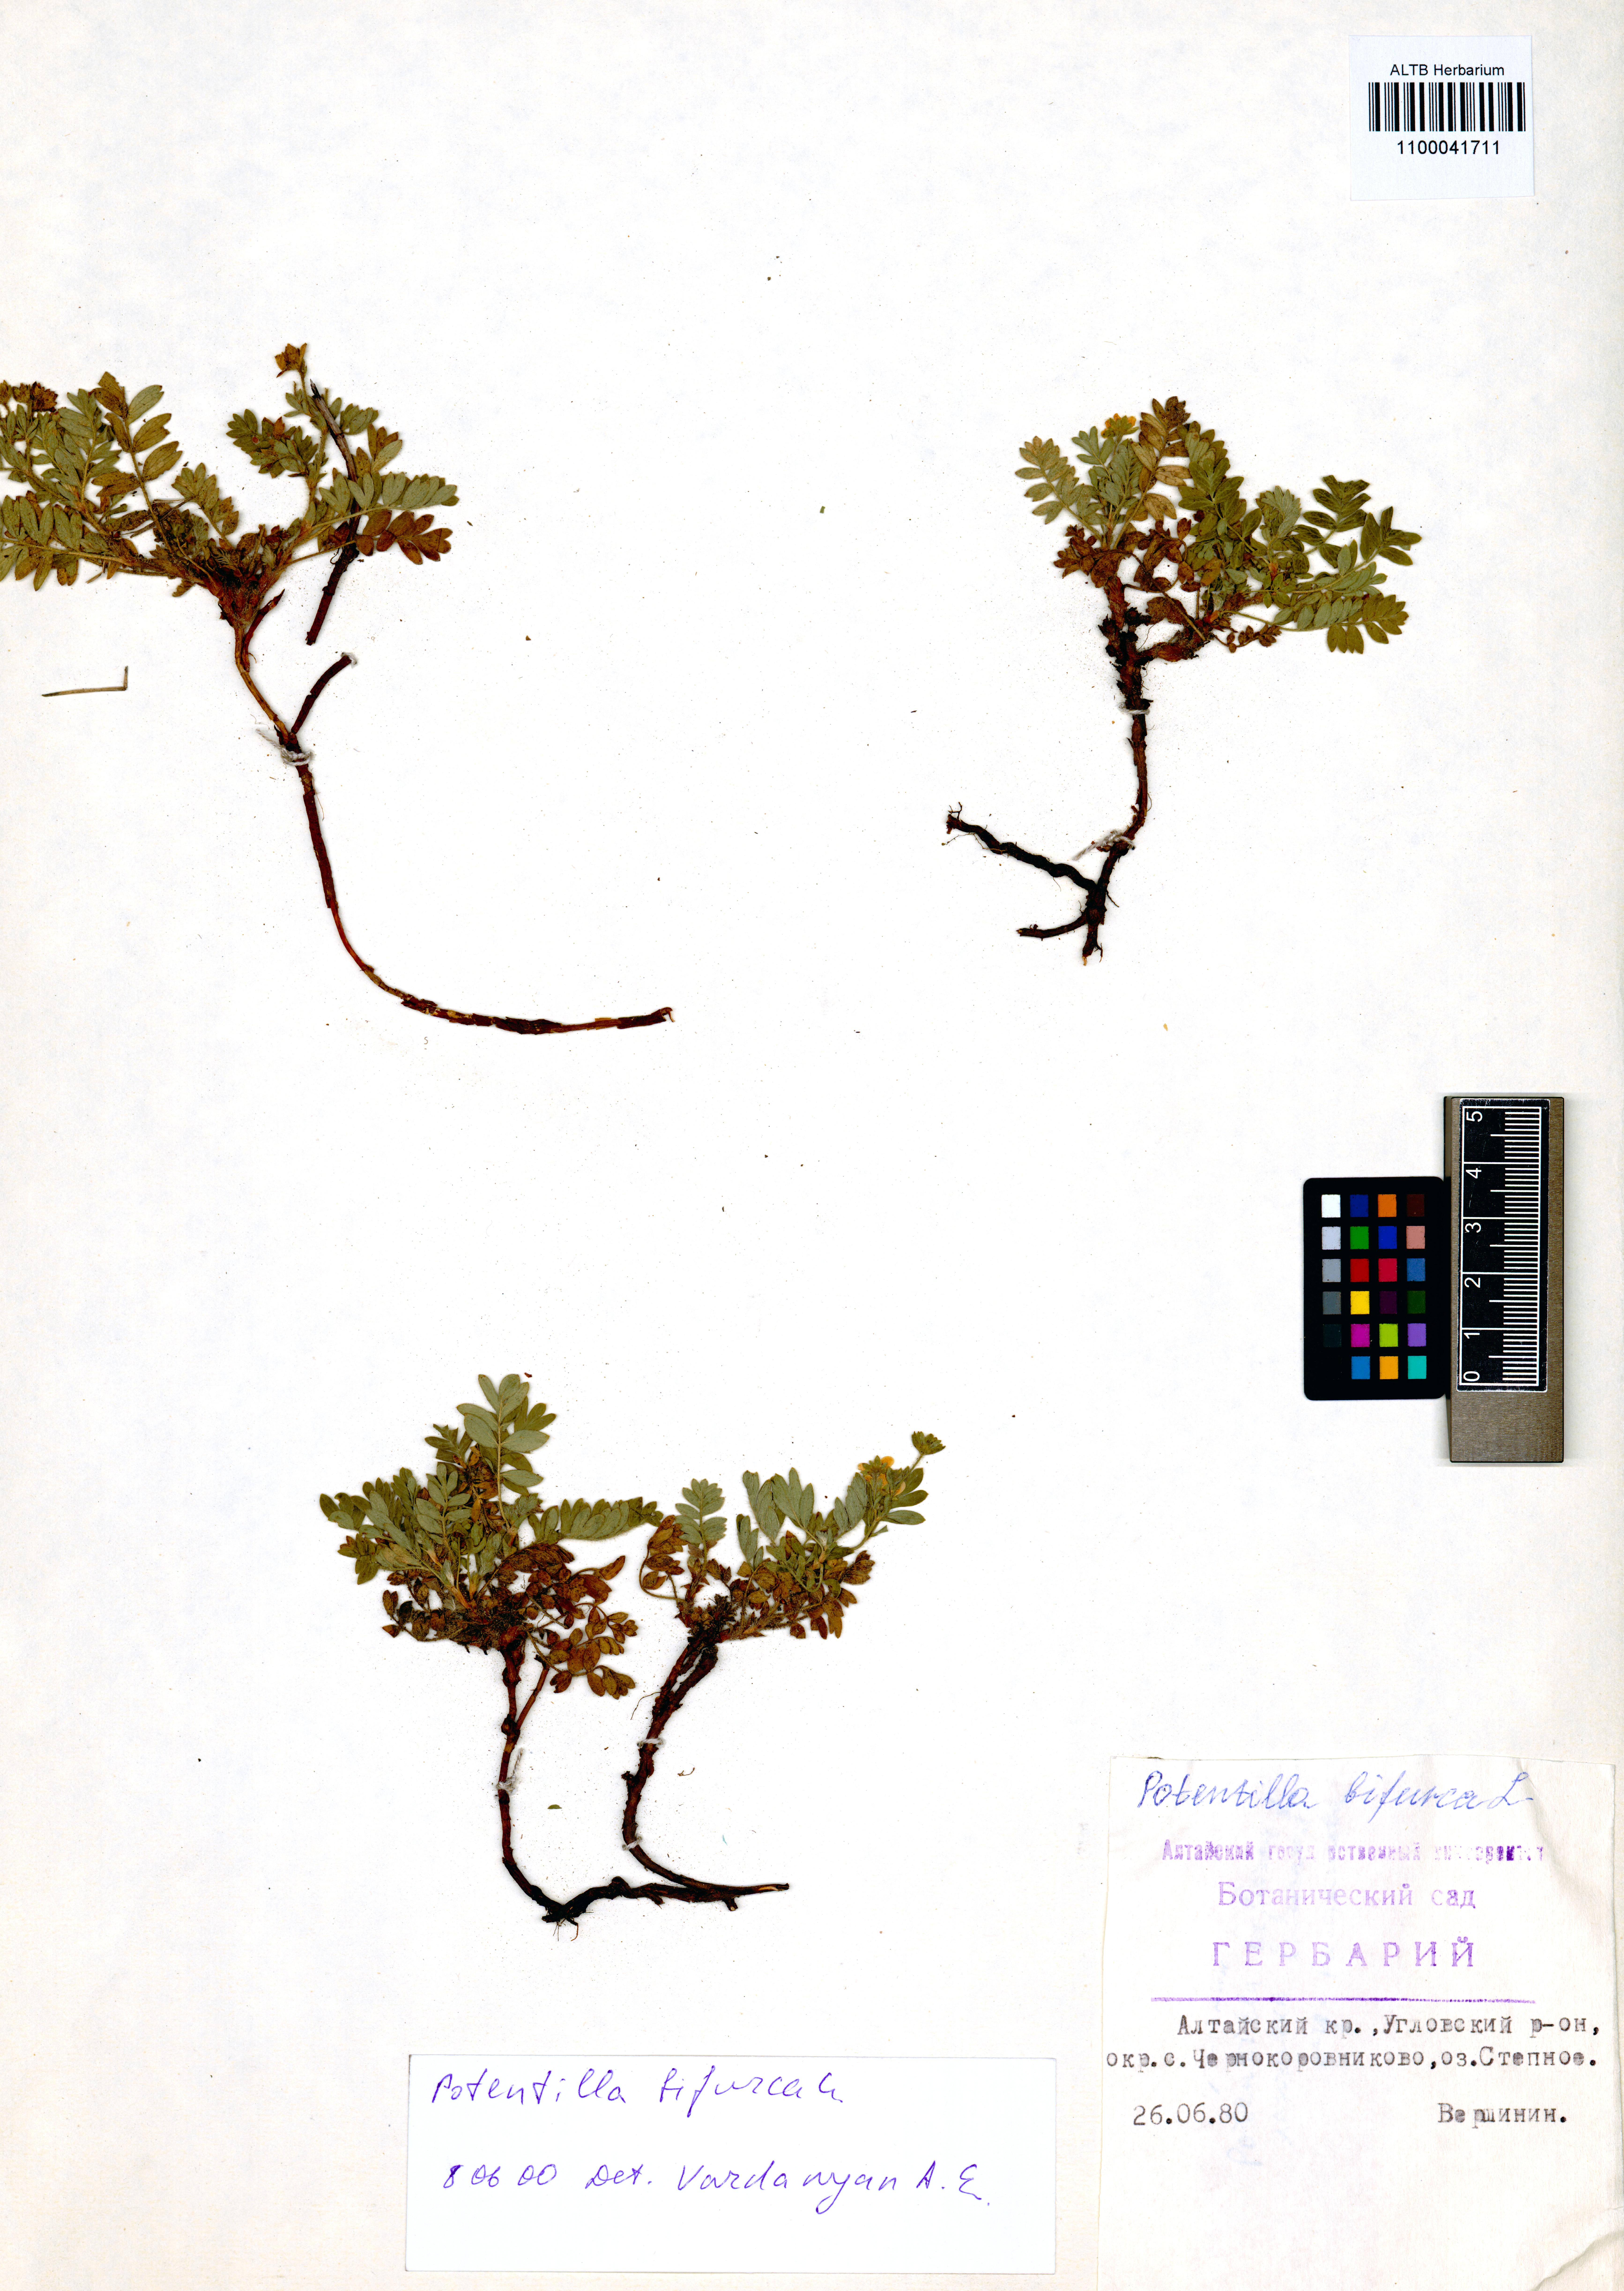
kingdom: Plantae
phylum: Tracheophyta
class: Magnoliopsida
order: Rosales
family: Rosaceae
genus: Sibbaldianthe
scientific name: Sibbaldianthe bifurca
